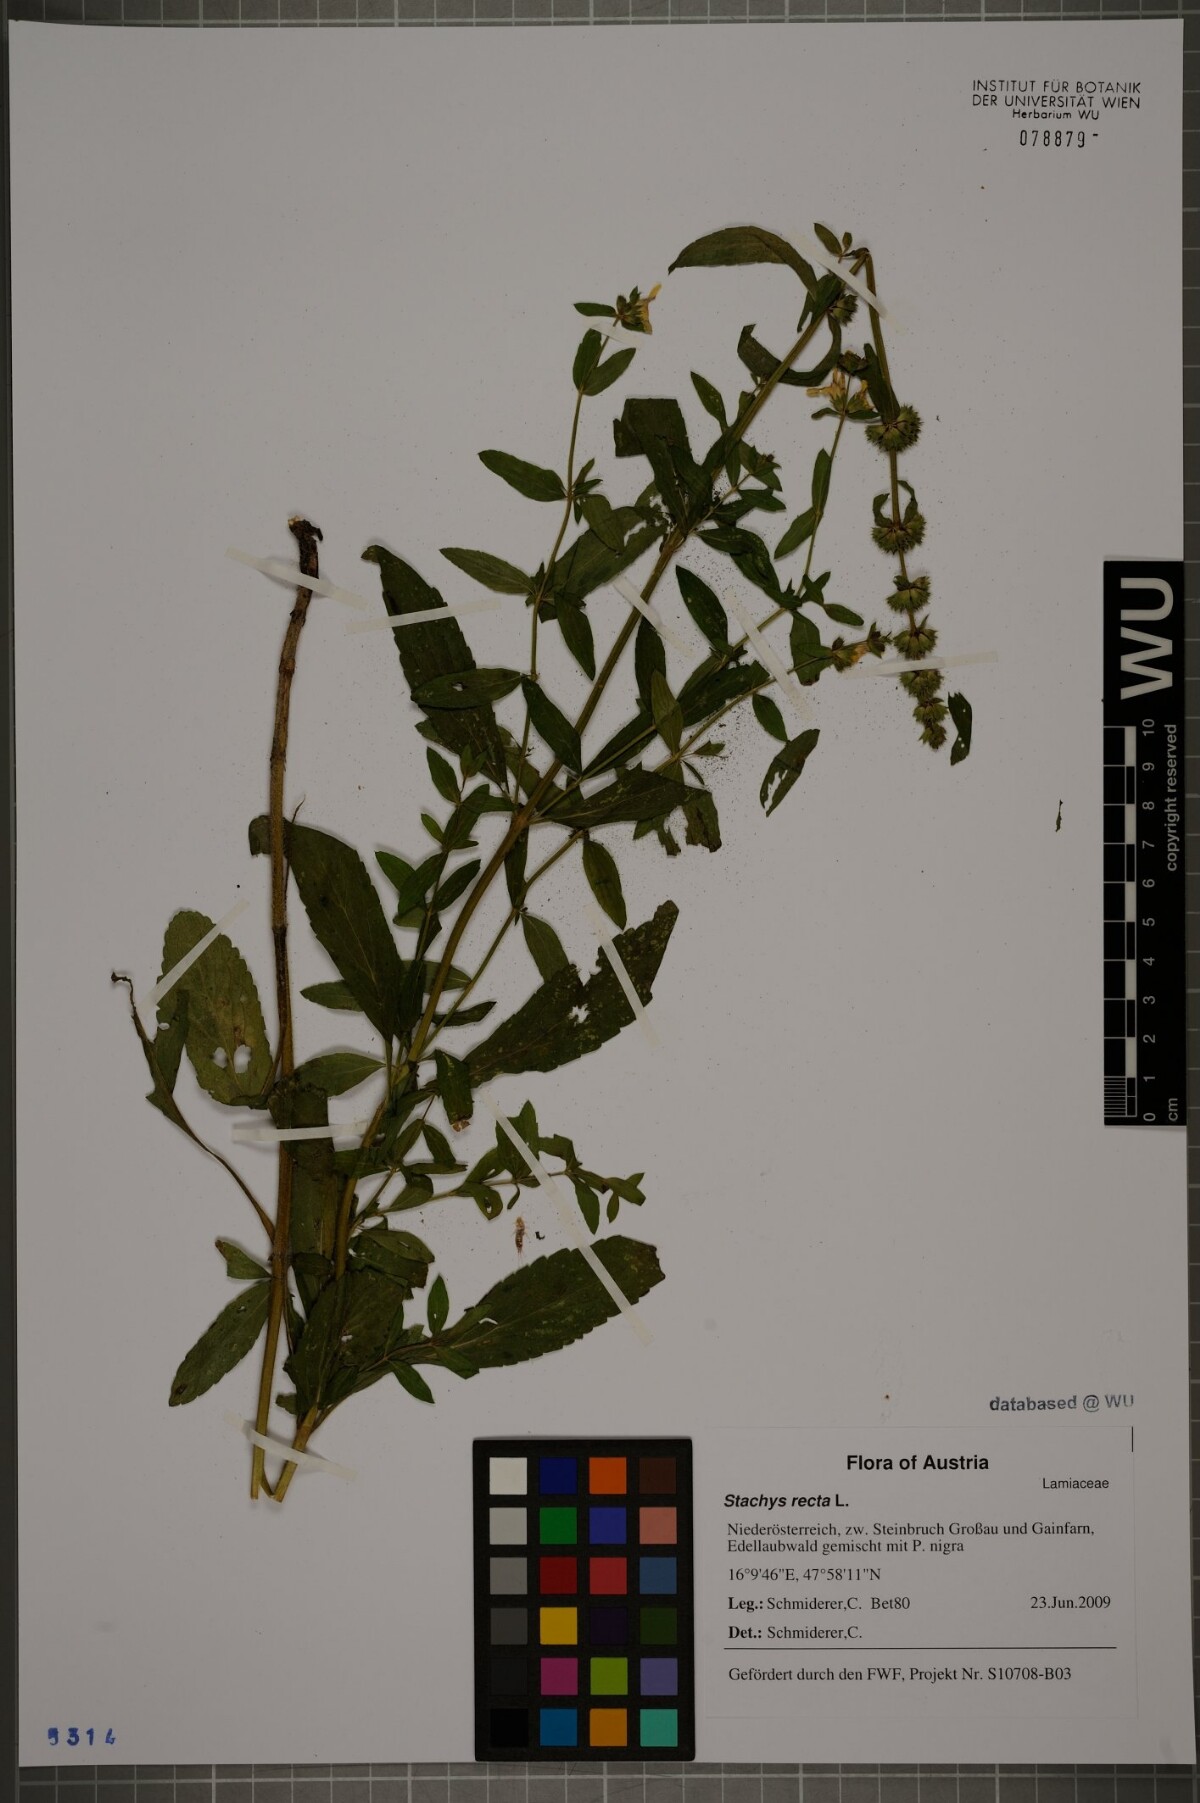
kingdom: Plantae
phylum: Tracheophyta
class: Magnoliopsida
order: Lamiales
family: Lamiaceae
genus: Stachys
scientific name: Stachys recta
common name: Perennial yellow-woundwort
